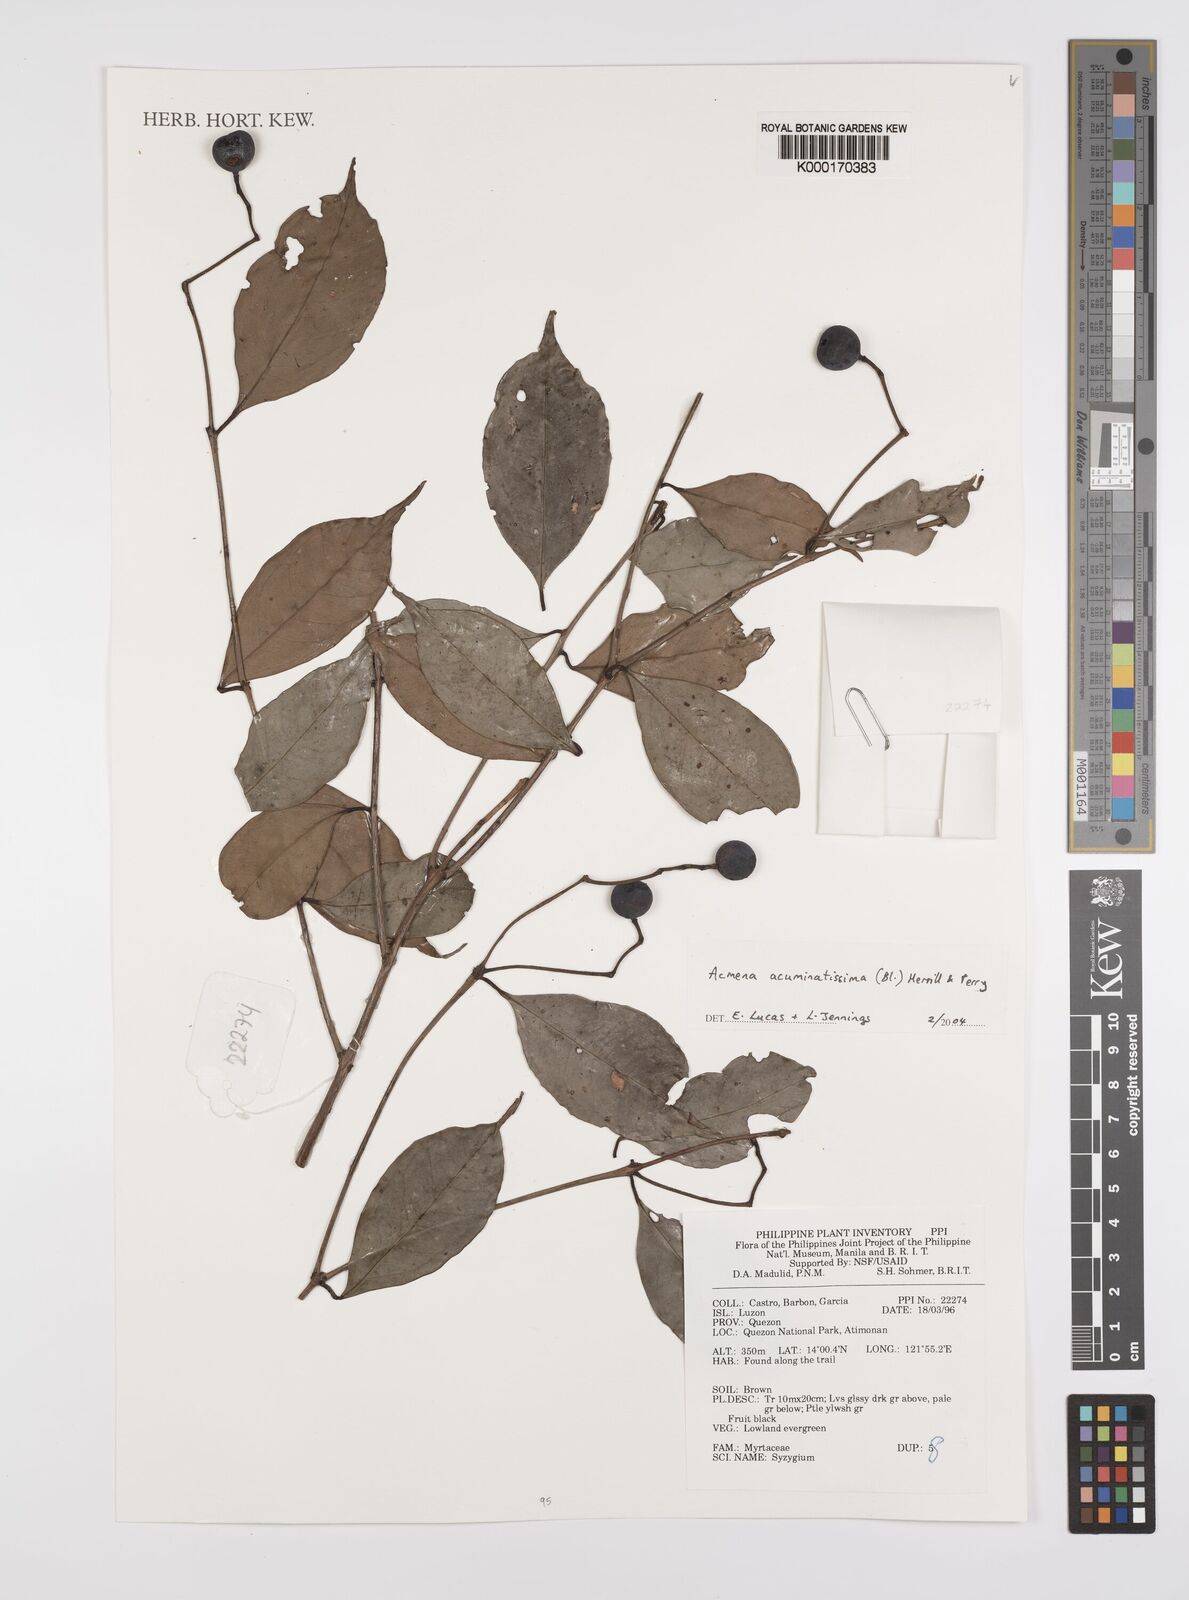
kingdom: Plantae
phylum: Tracheophyta
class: Magnoliopsida
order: Myrtales
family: Myrtaceae
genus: Syzygium
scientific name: Syzygium acuminatissimum
